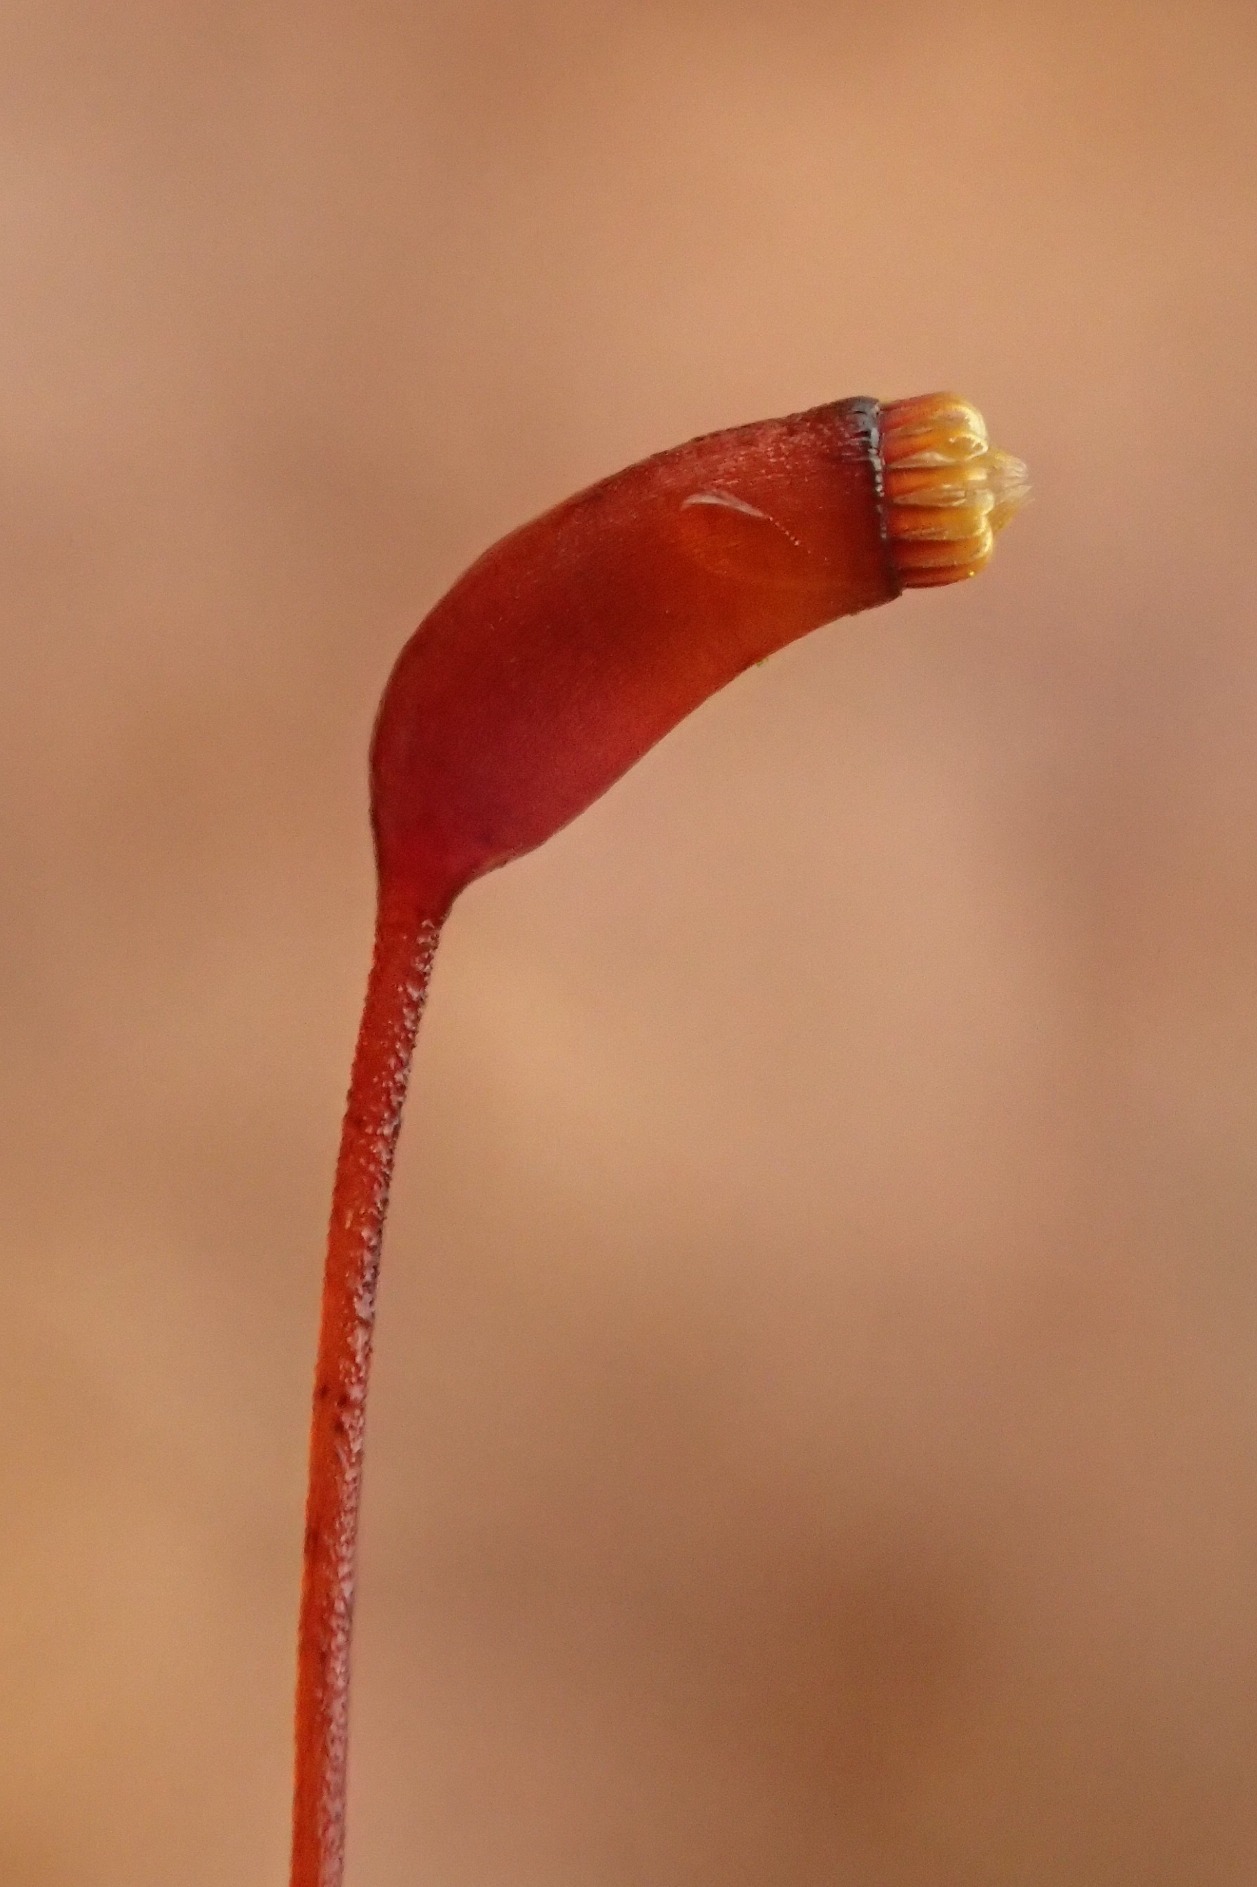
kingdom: Plantae
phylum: Bryophyta
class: Bryopsida
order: Hypnales
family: Brachytheciaceae
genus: Brachythecium
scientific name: Brachythecium rutabulum
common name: Almindelig kortkapsel
